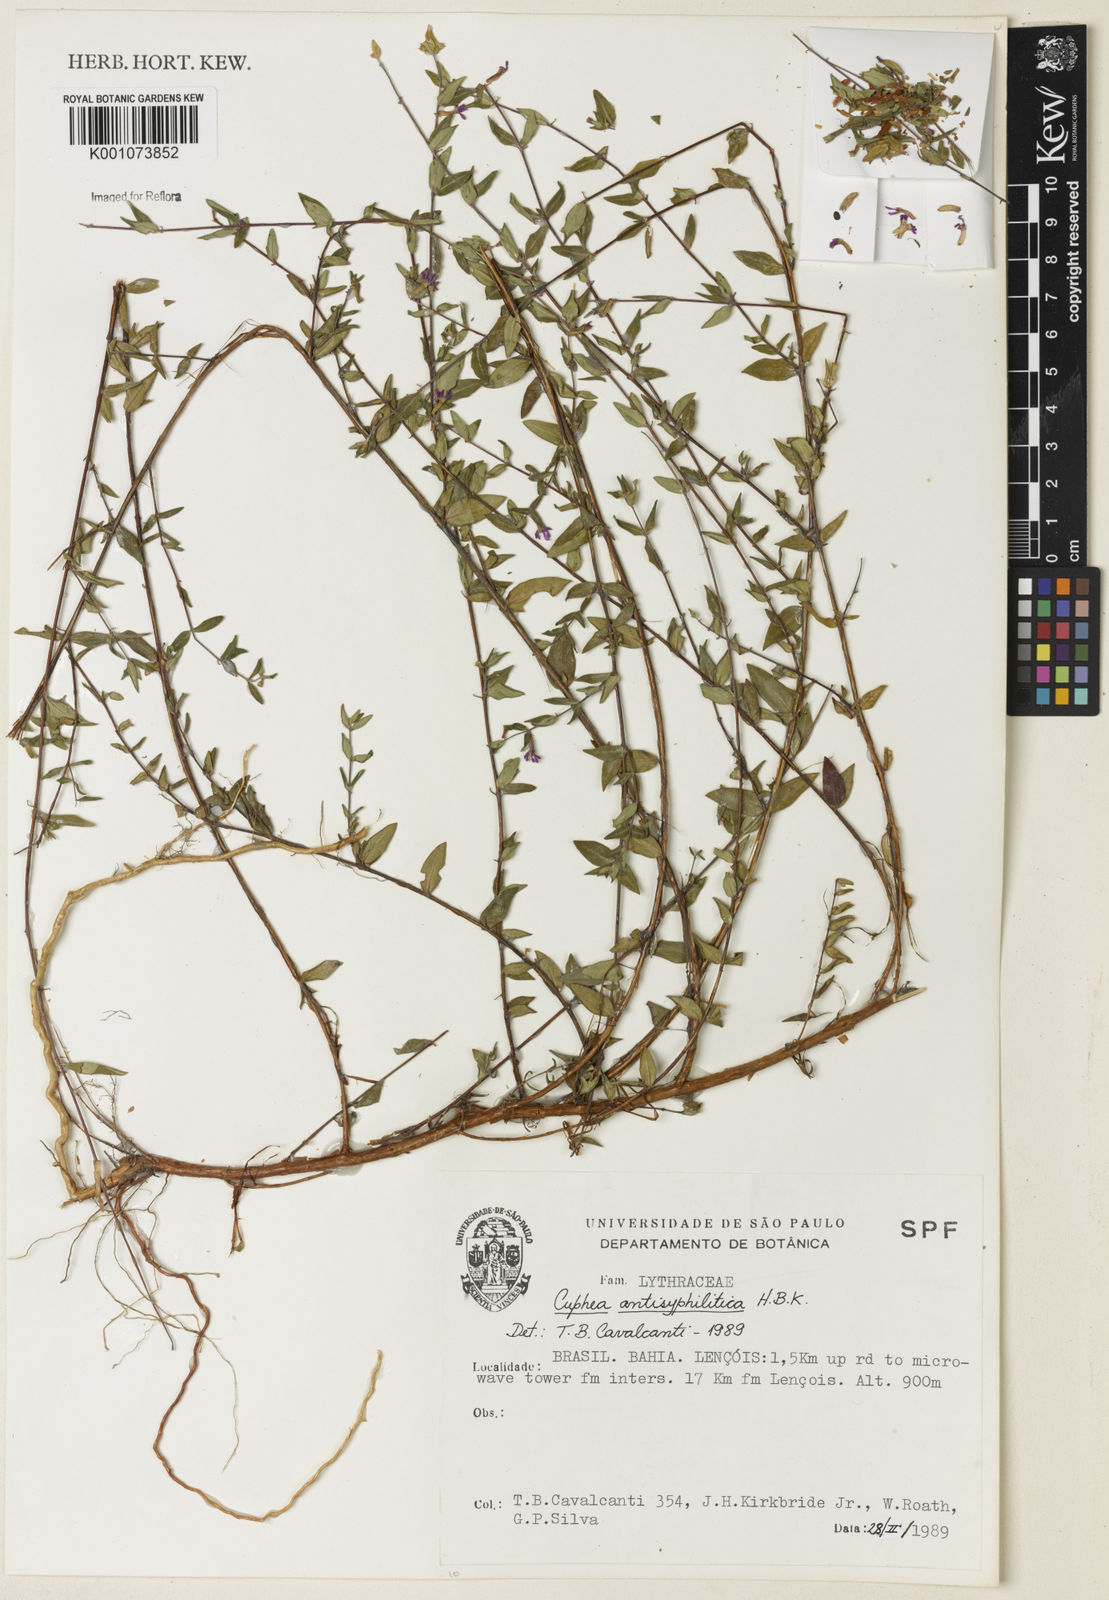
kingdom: Plantae
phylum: Tracheophyta
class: Magnoliopsida
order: Myrtales
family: Lythraceae
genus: Cuphea
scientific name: Cuphea antisyphilitica
